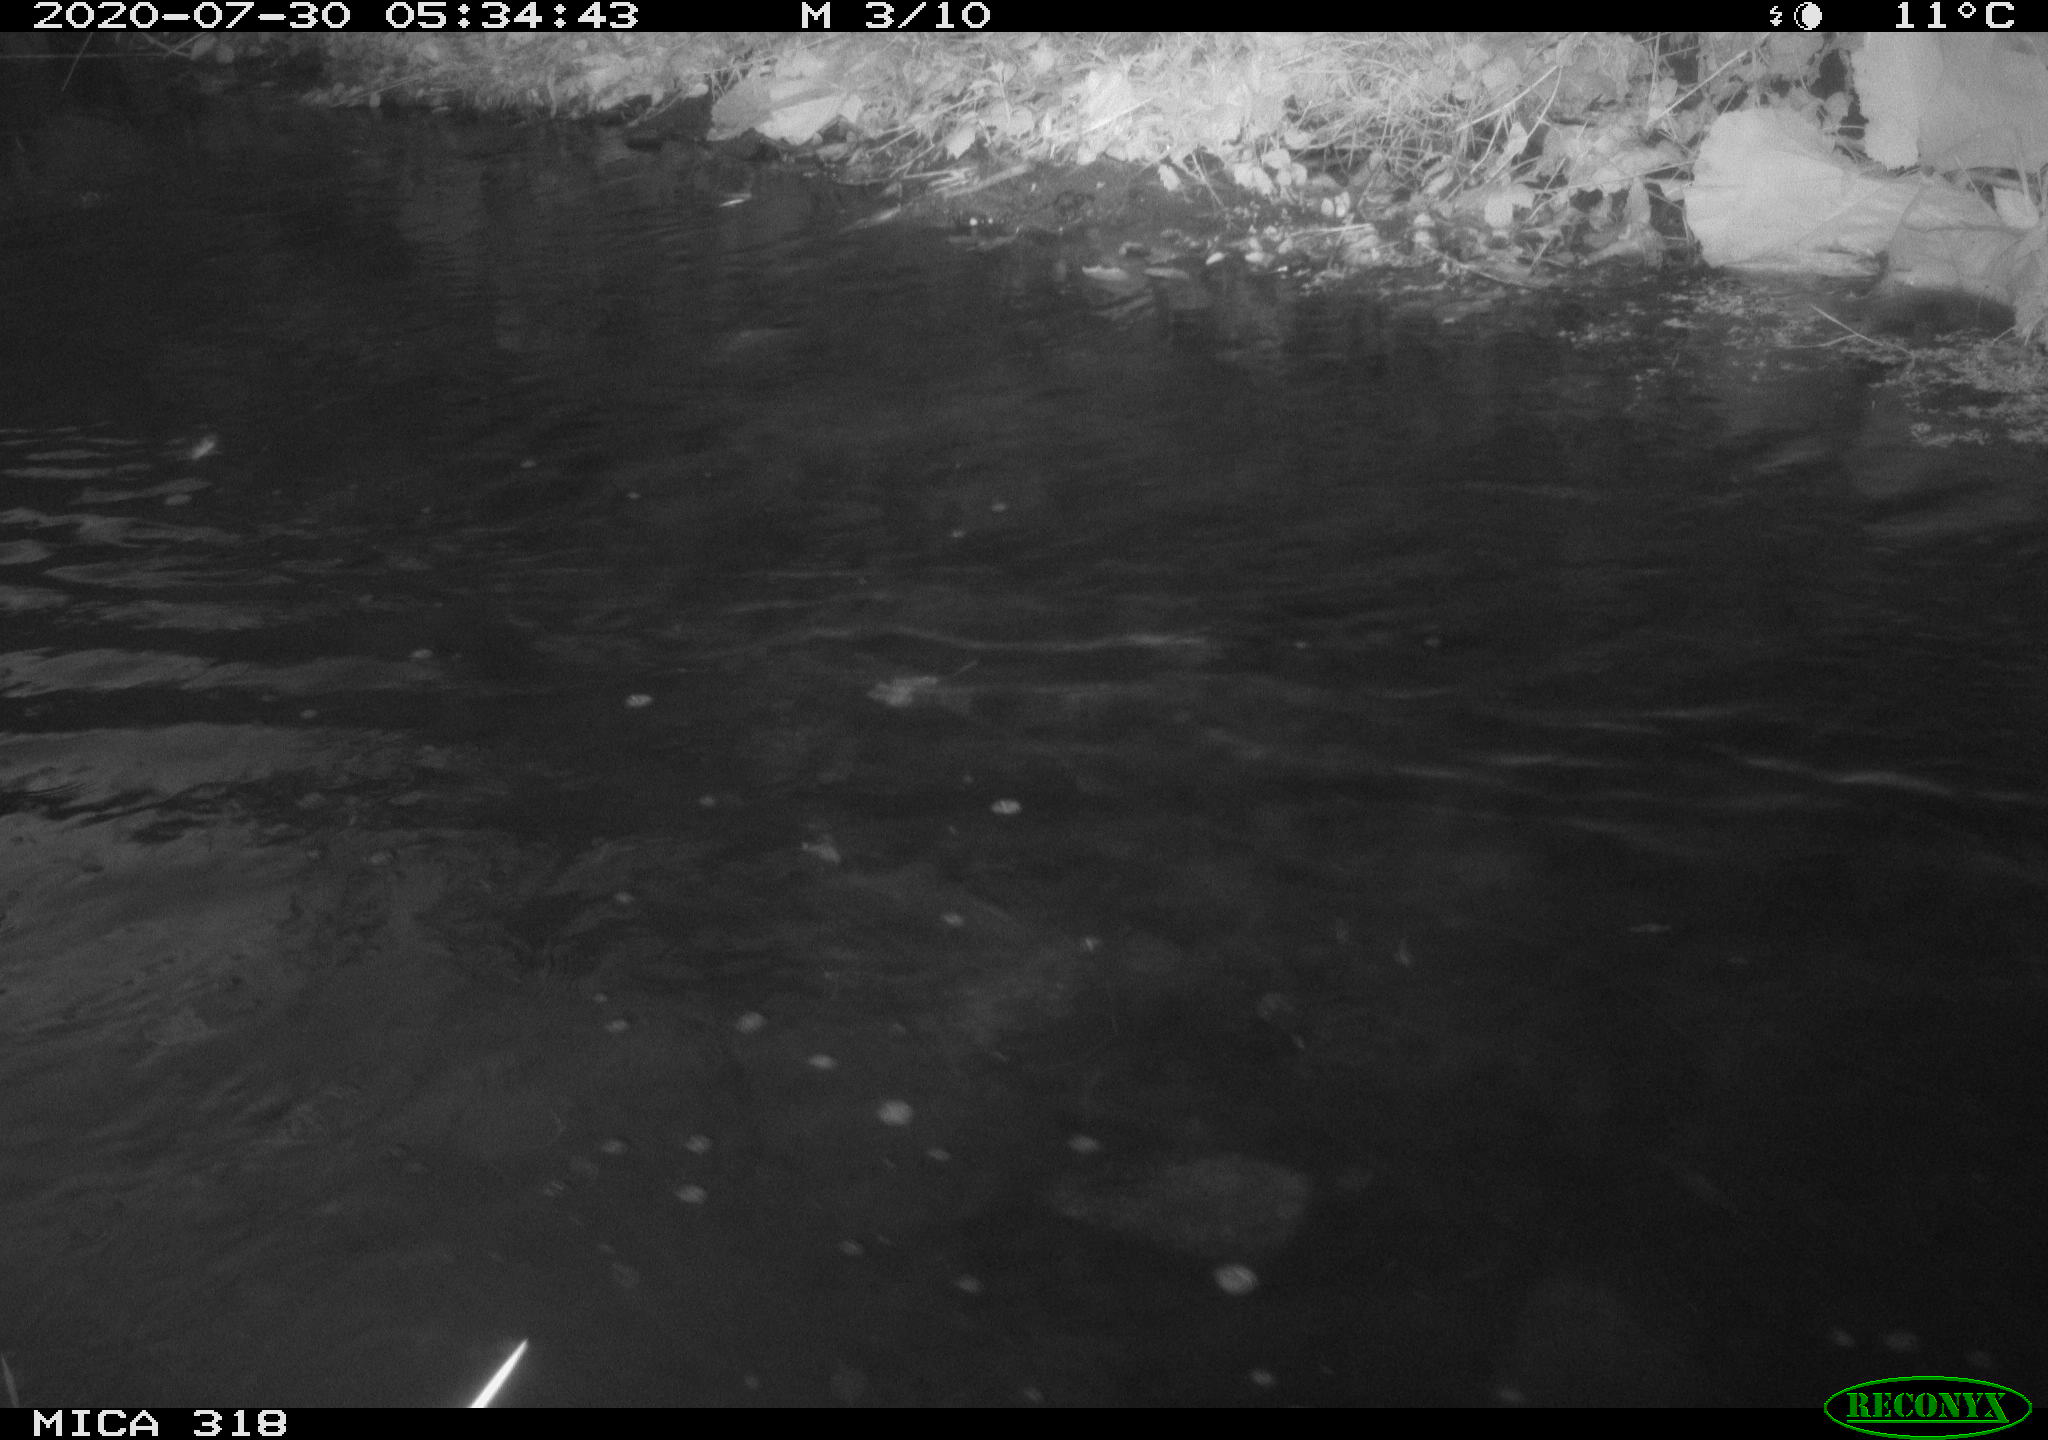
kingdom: Animalia
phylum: Chordata
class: Aves
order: Anseriformes
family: Anatidae
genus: Anas
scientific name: Anas platyrhynchos
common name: Mallard
